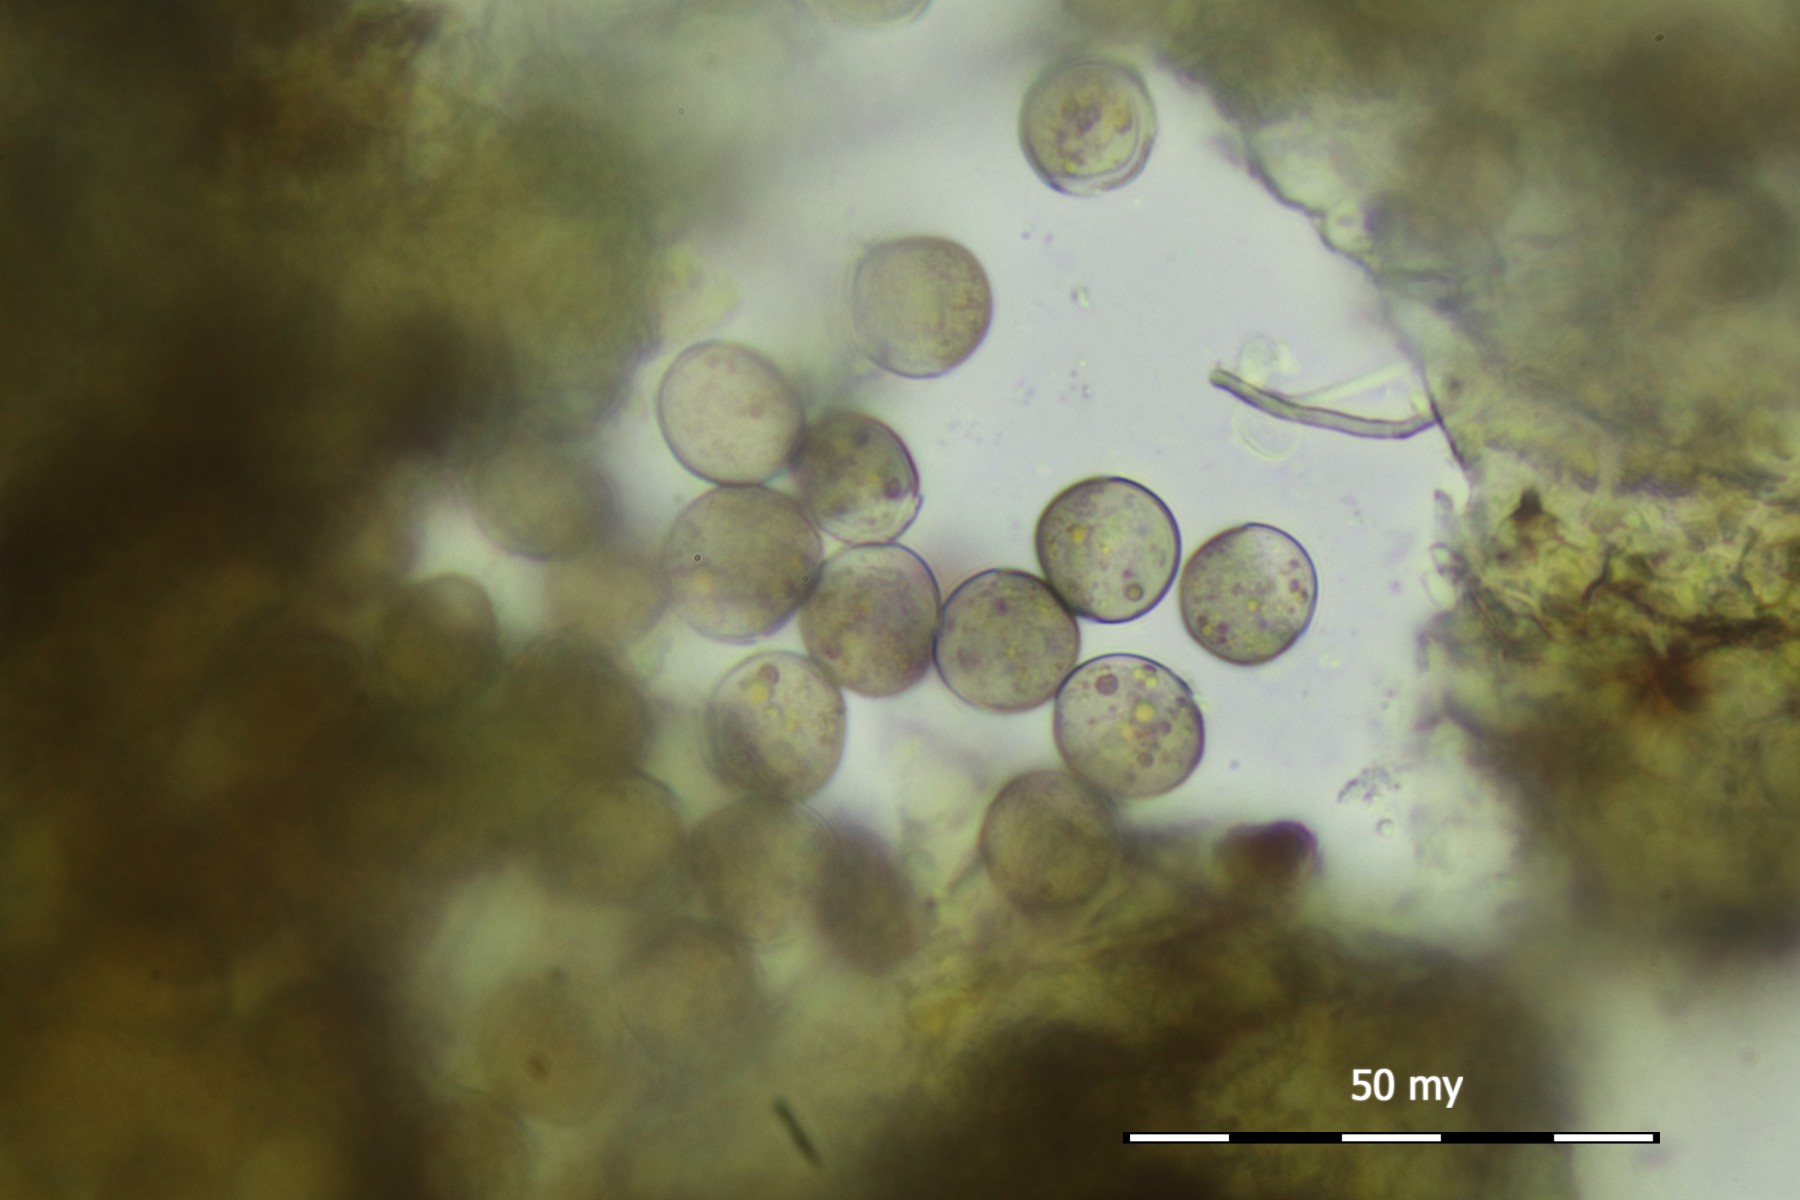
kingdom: Protozoa
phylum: Mycetozoa
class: Myxomycetes
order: Cribrariales
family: Liceaceae
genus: Licea
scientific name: Licea parasitica
